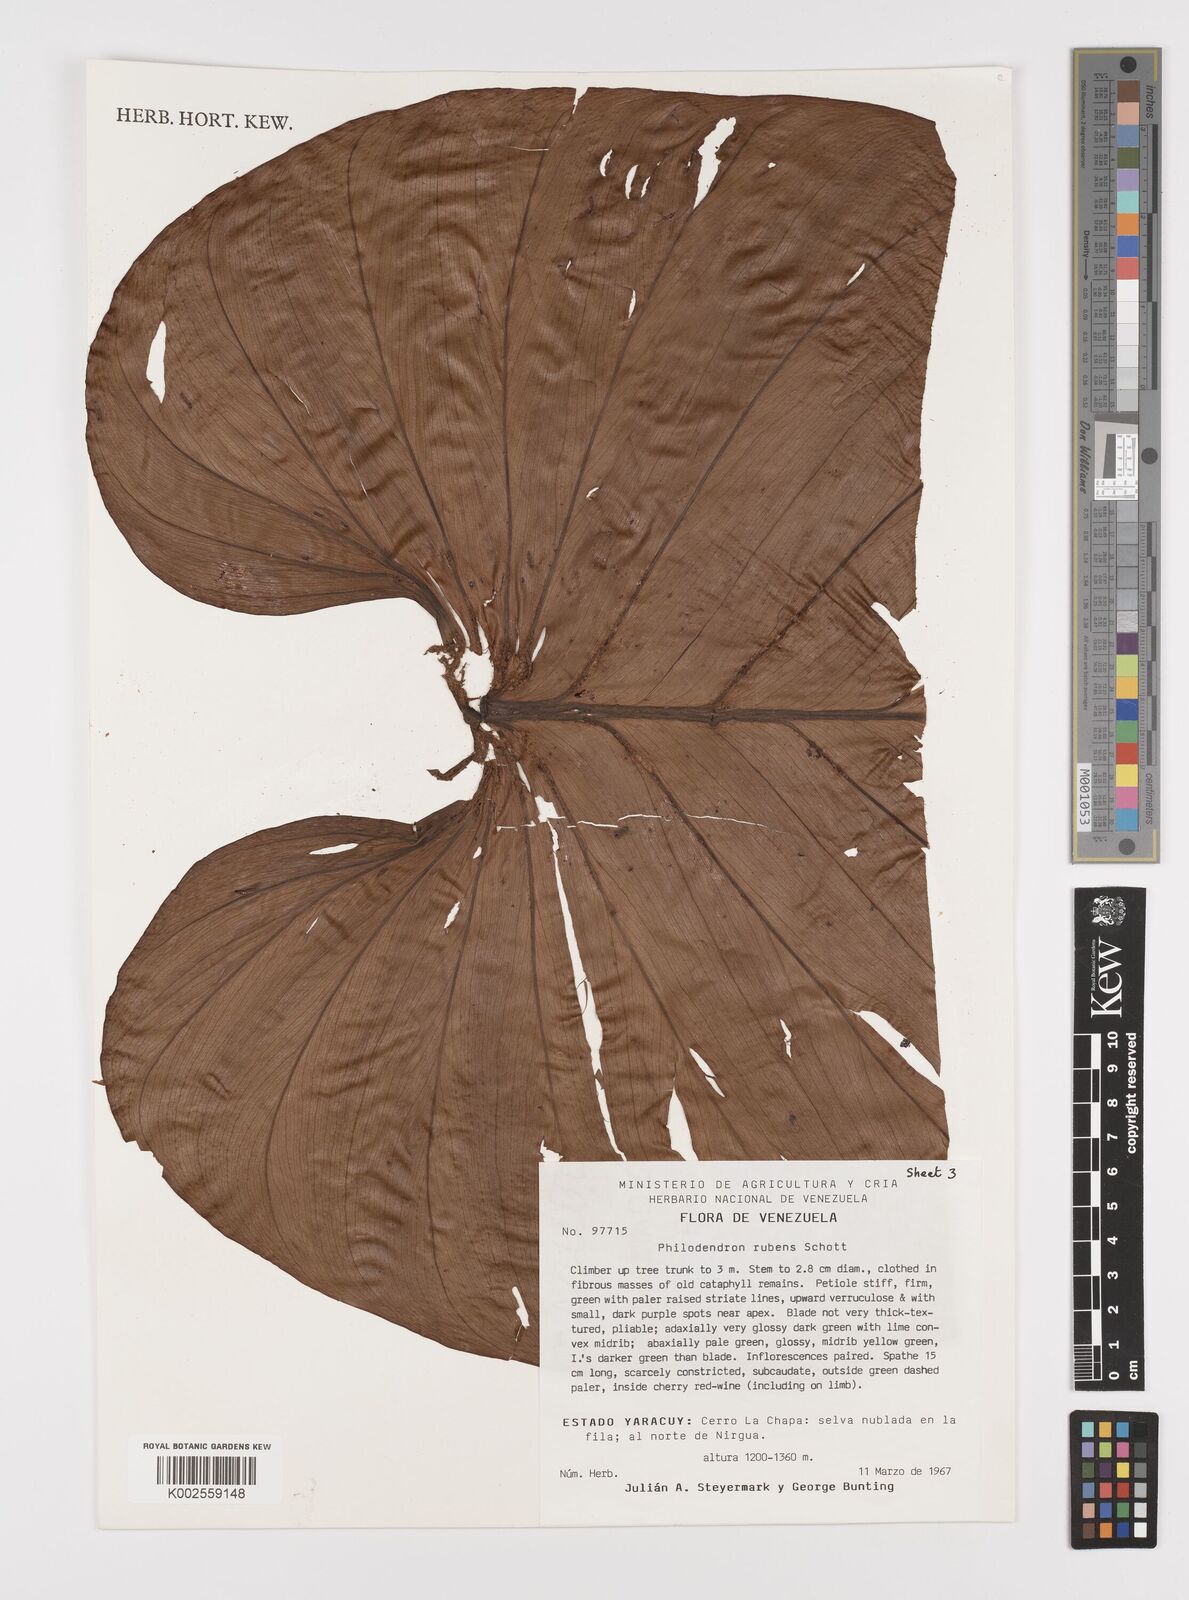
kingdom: Plantae
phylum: Tracheophyta
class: Liliopsida
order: Alismatales
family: Araceae
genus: Philodendron
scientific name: Philodendron ornatum
